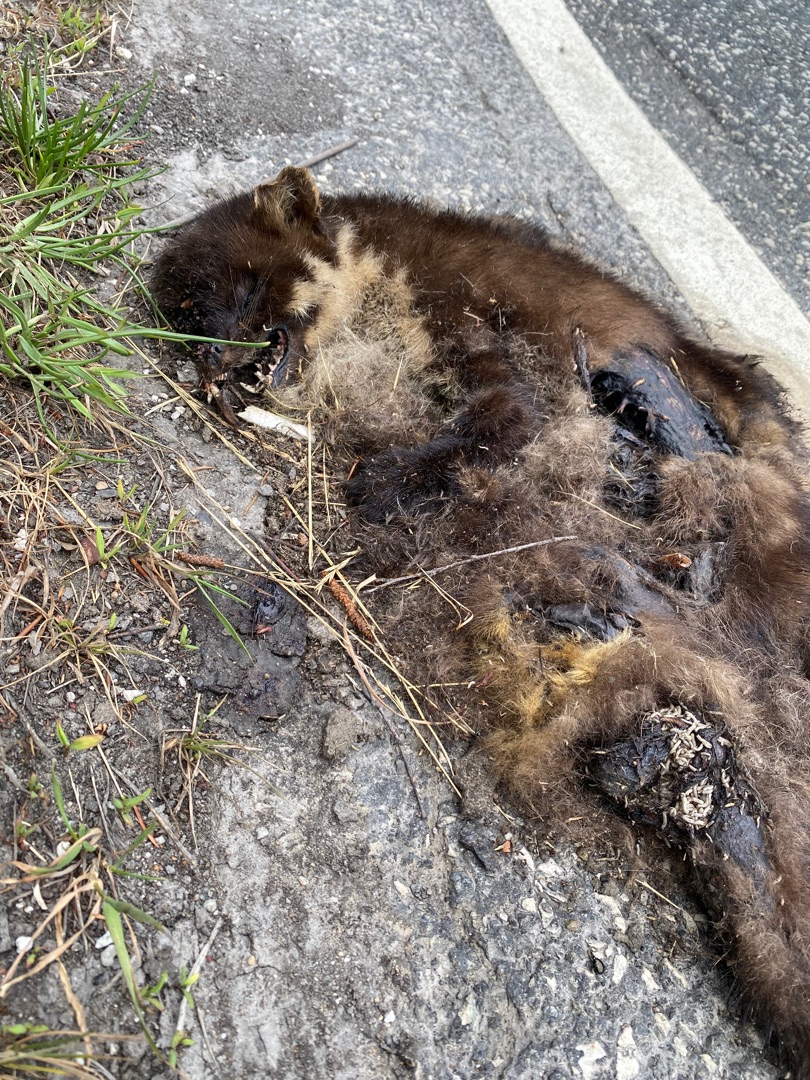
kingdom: Animalia
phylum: Chordata
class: Mammalia
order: Carnivora
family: Mustelidae
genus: Martes
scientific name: Martes martes
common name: Skovmår
